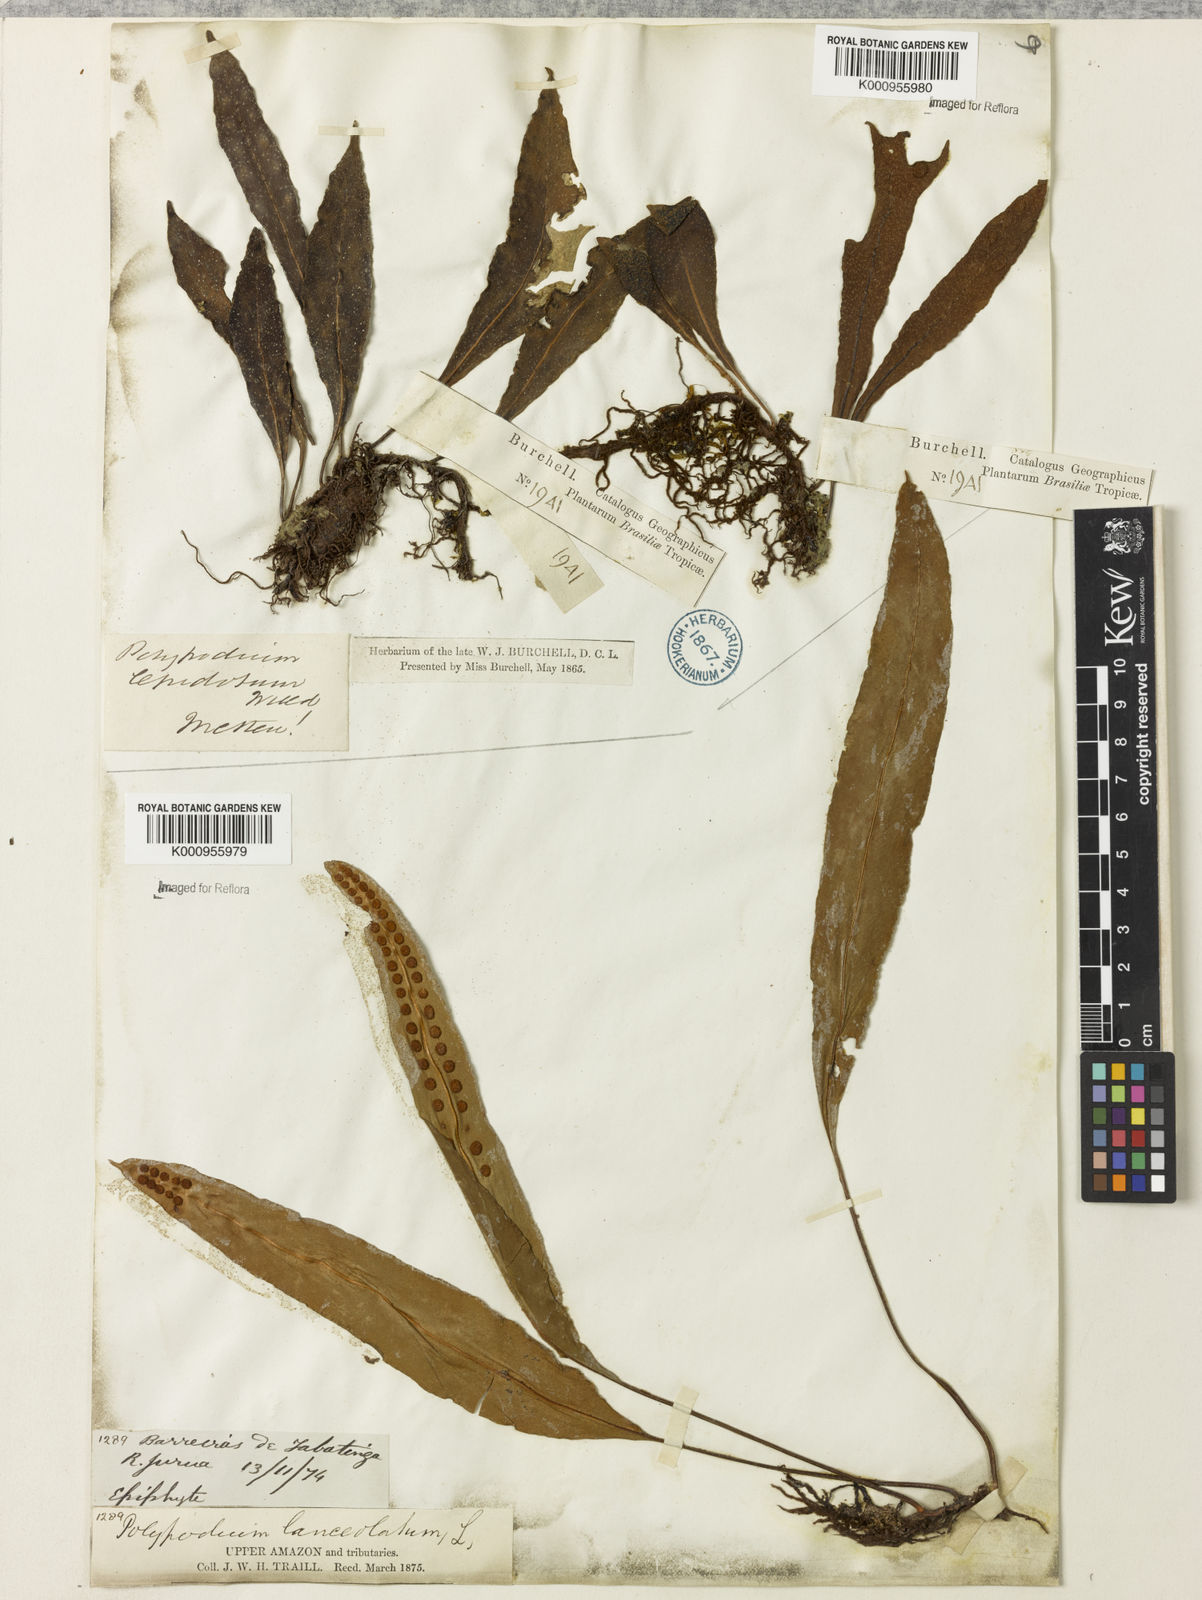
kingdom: Plantae
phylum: Tracheophyta
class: Polypodiopsida
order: Polypodiales
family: Polypodiaceae
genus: Pleopeltis
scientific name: Pleopeltis
